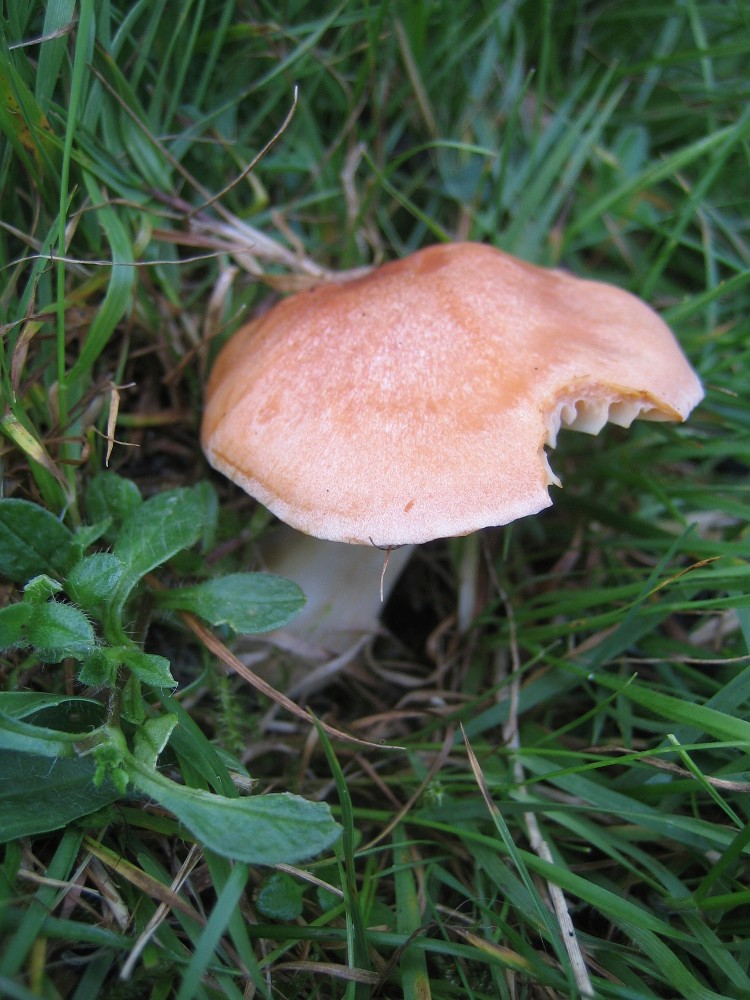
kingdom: Fungi
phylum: Basidiomycota
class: Agaricomycetes
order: Agaricales
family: Hygrophoraceae
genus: Cuphophyllus
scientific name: Cuphophyllus pratensis
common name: eng-vokshat
